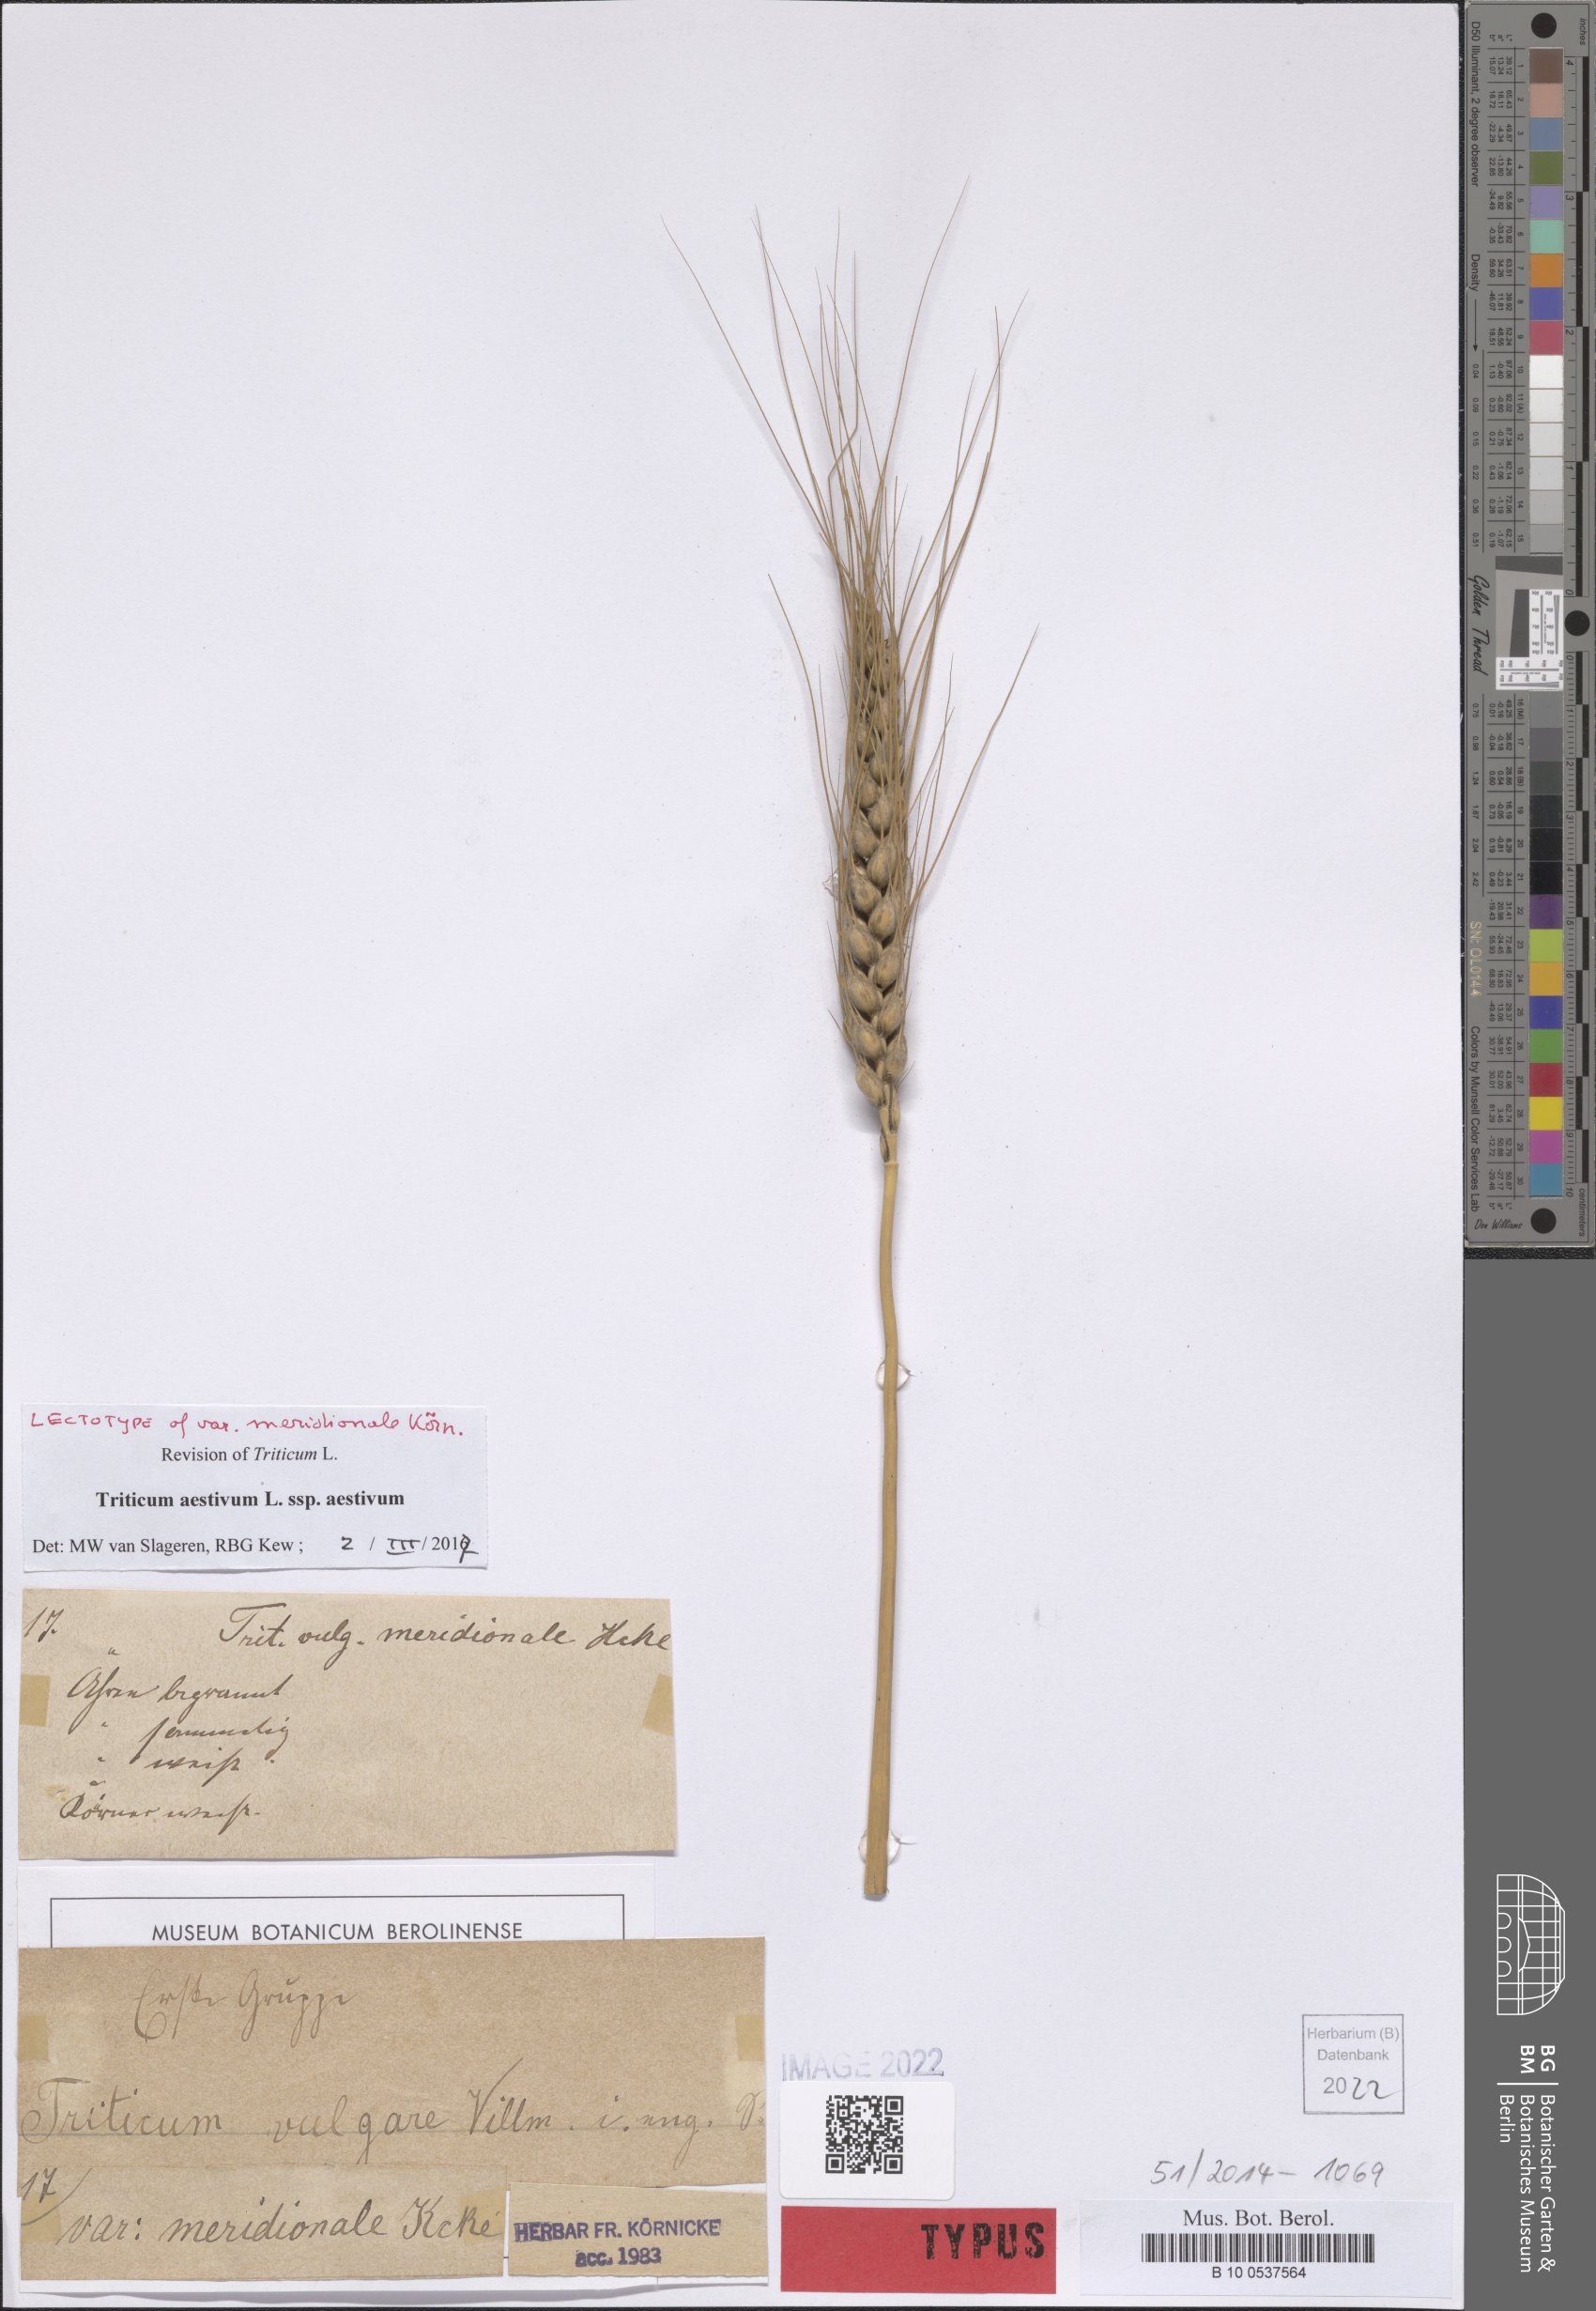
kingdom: Plantae
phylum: Tracheophyta
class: Liliopsida
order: Poales
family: Poaceae
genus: Triticum
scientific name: Triticum aestivum
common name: Common wheat
